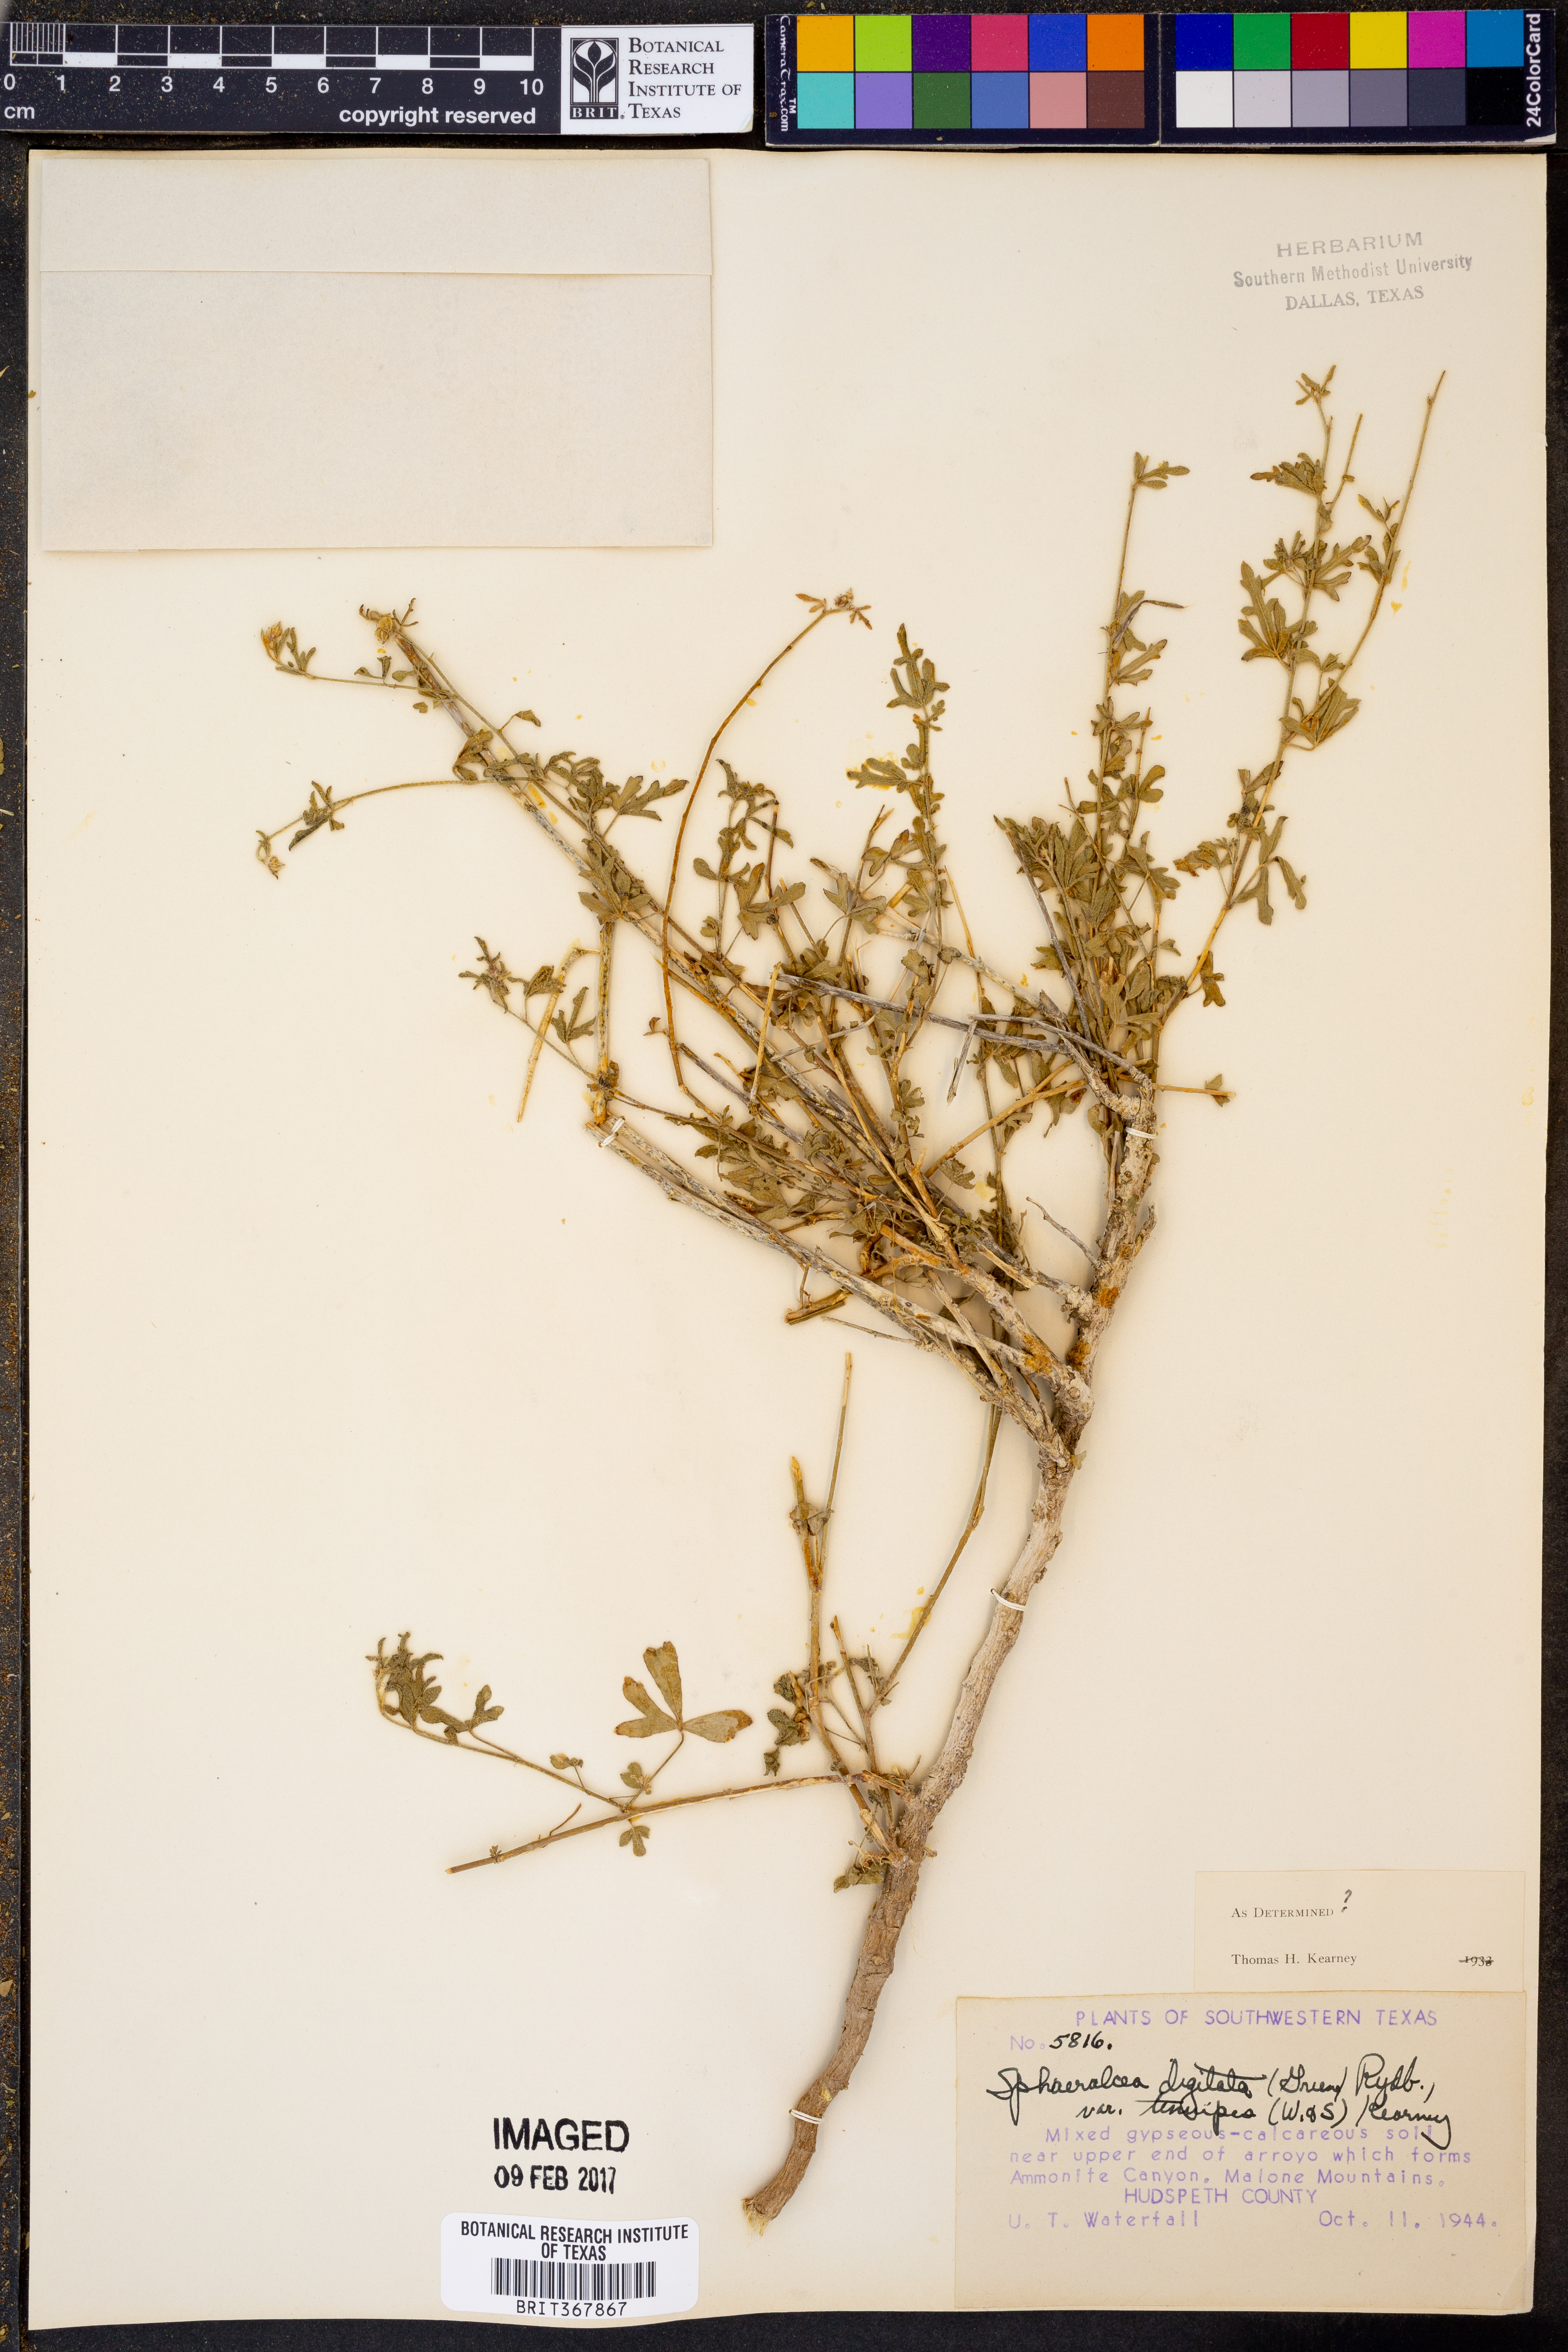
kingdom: Plantae
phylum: Tracheophyta
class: Magnoliopsida
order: Malvales
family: Malvaceae
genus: Sphaeralcea
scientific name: Sphaeralcea digitata
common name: Juniper-gobe-mallow
